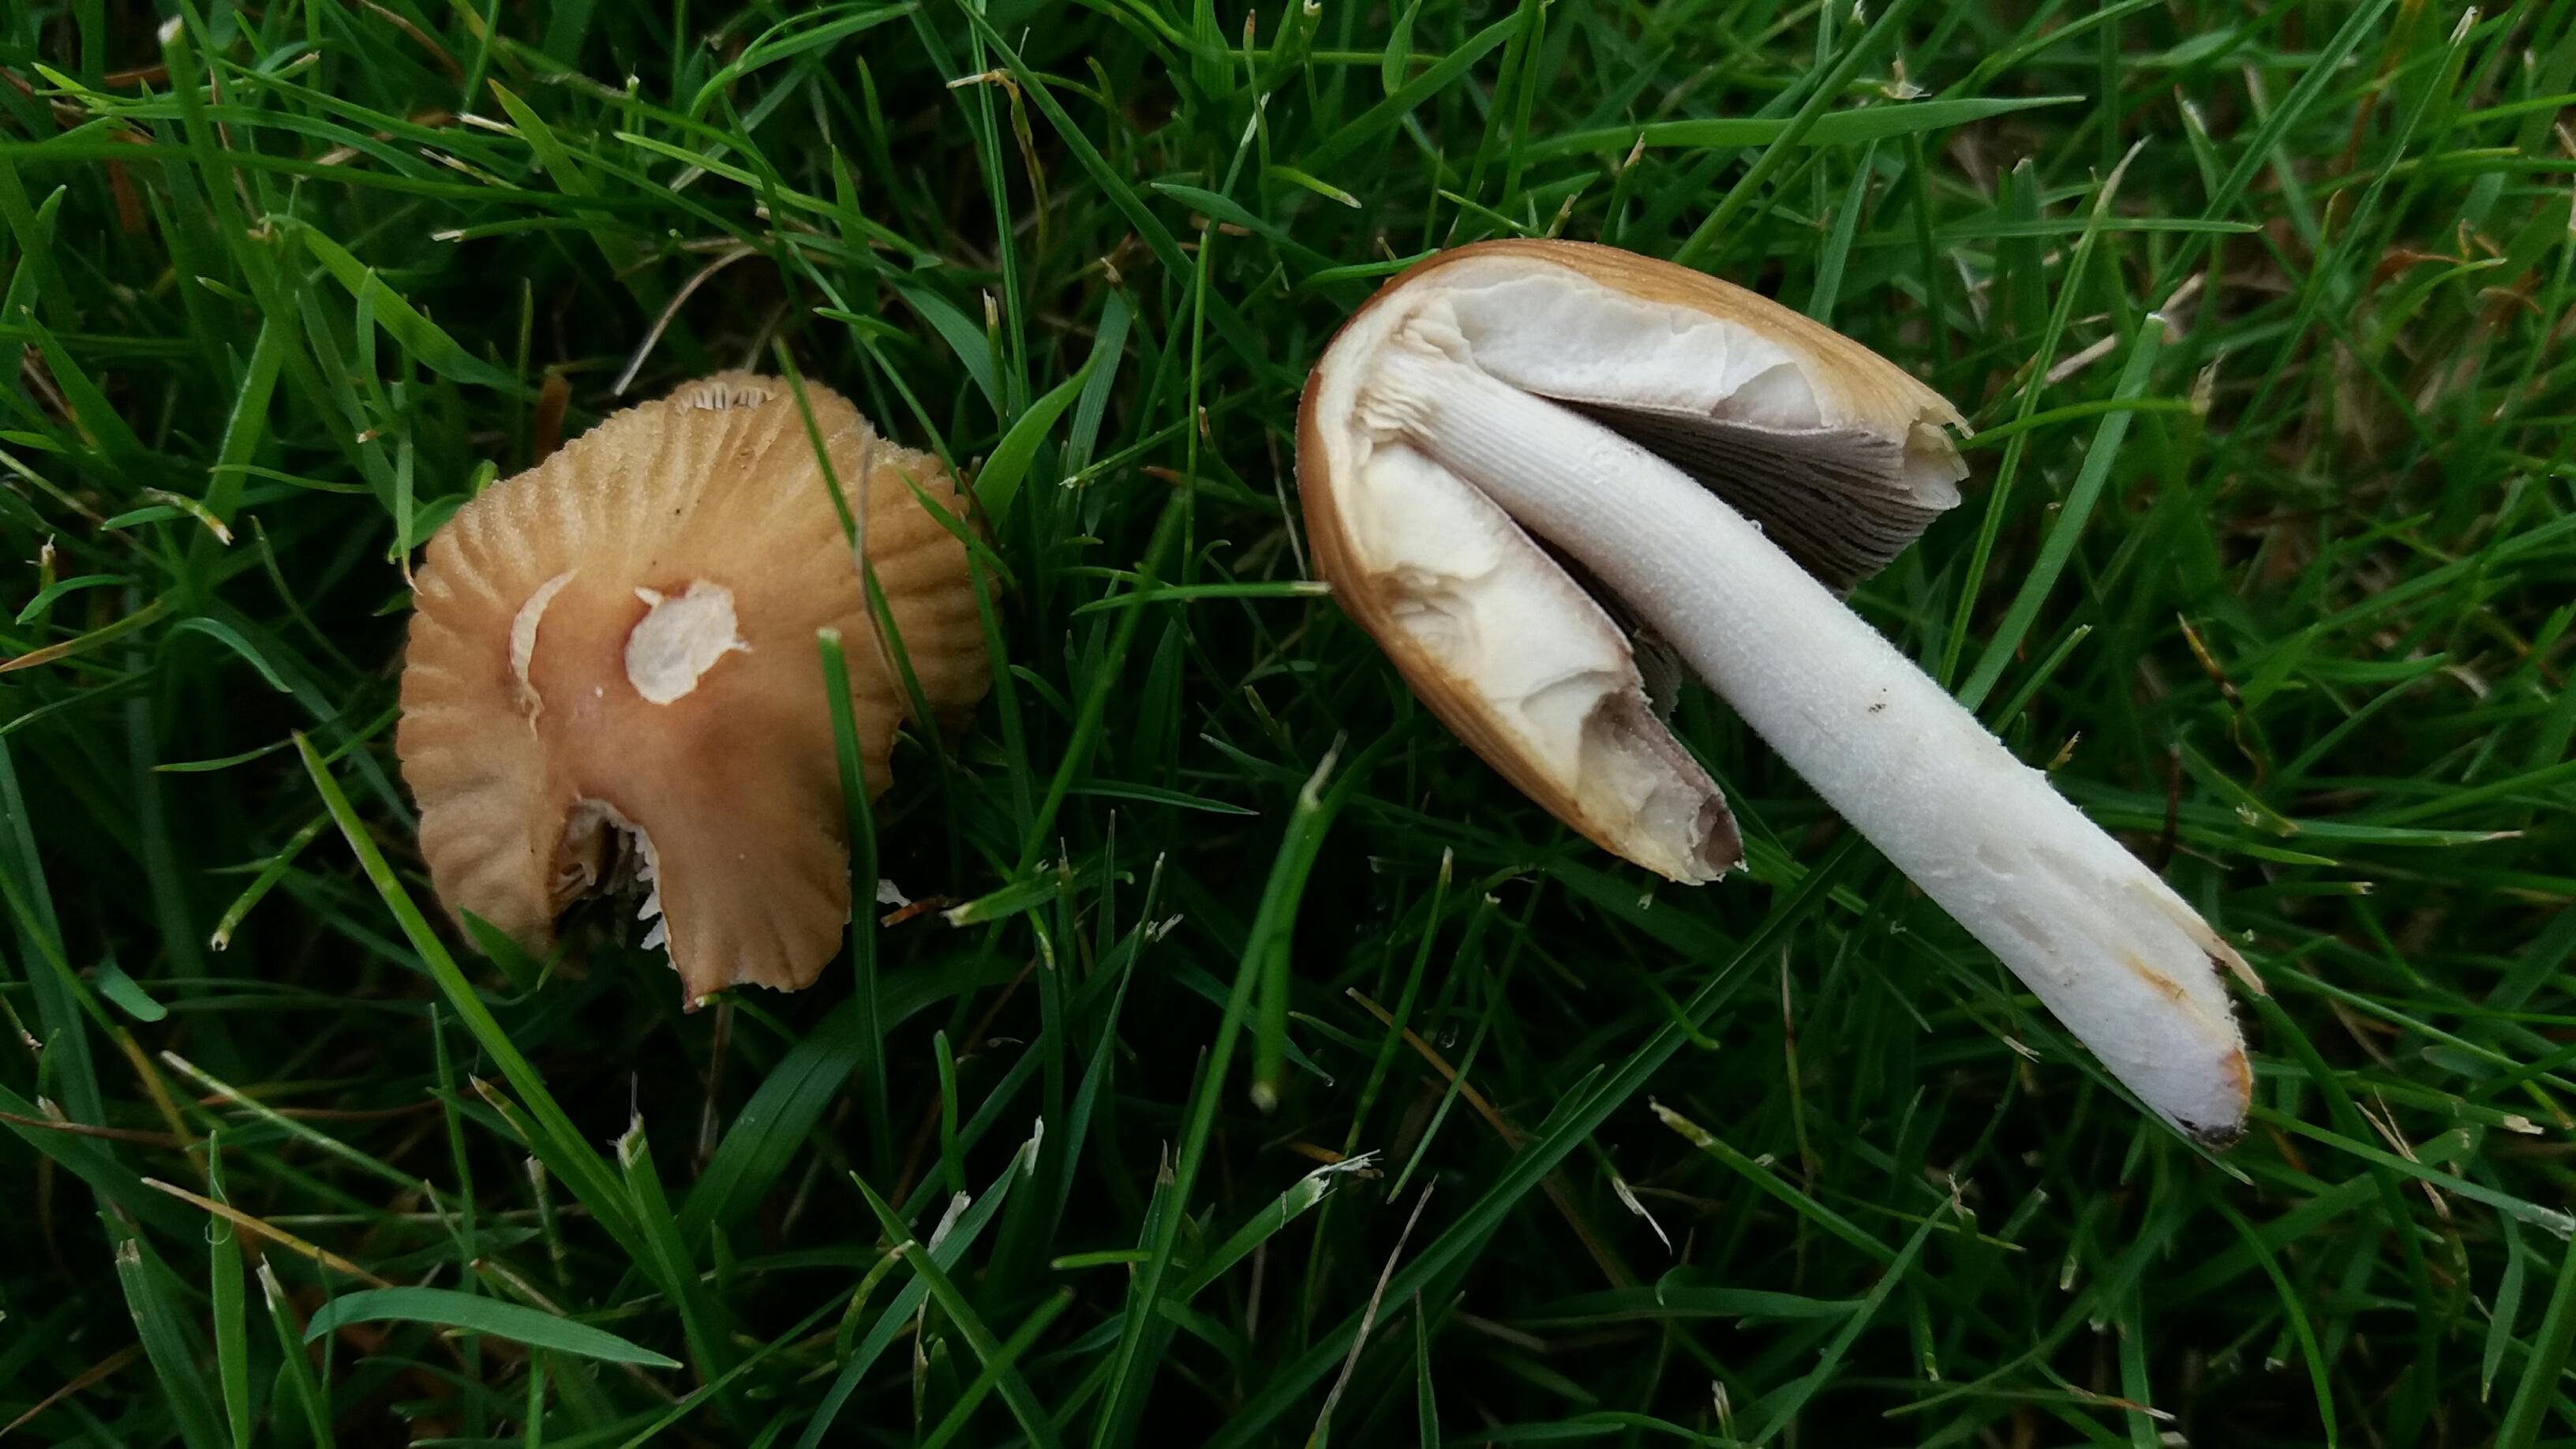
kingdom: Fungi
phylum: Basidiomycota
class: Agaricomycetes
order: Agaricales
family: Psathyrellaceae
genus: Coprinellus
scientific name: Coprinellus micaceus
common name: glimmer-blækhat
